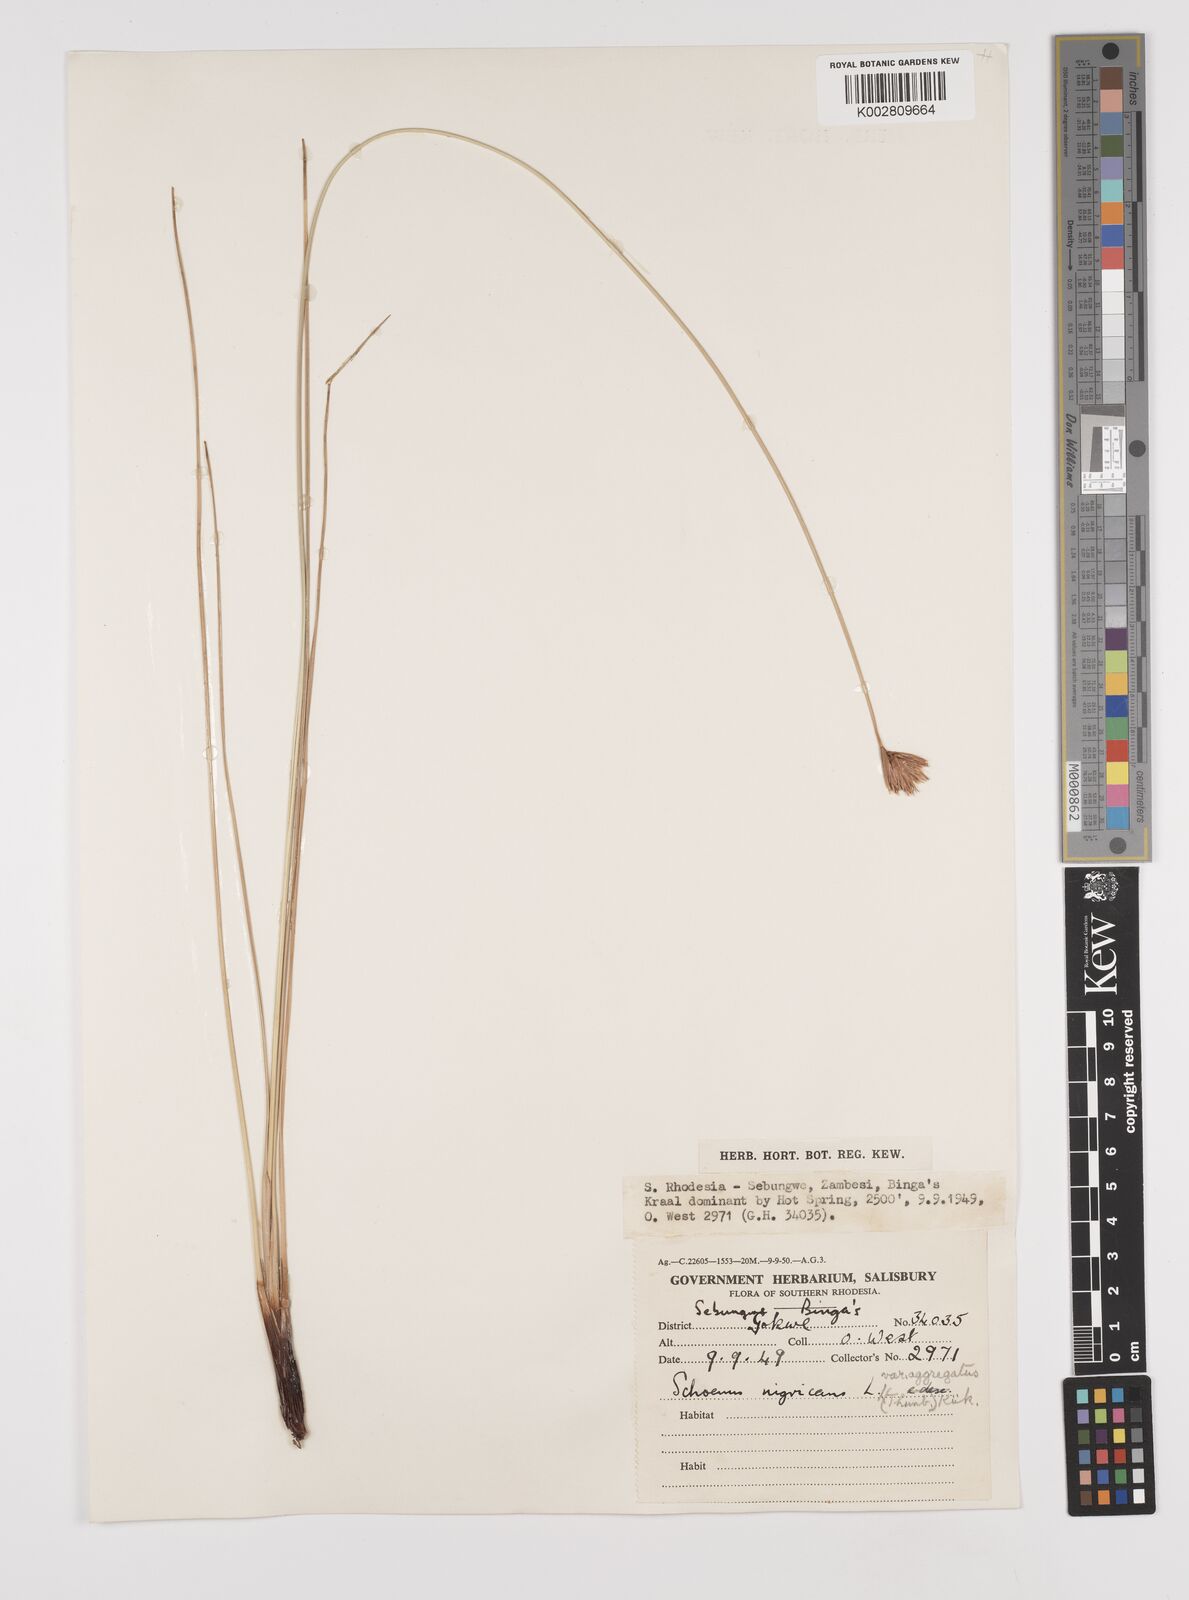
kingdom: Plantae
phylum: Tracheophyta
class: Liliopsida
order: Poales
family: Cyperaceae
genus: Schoenus
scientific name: Schoenus nigricans
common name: Black bog-rush
